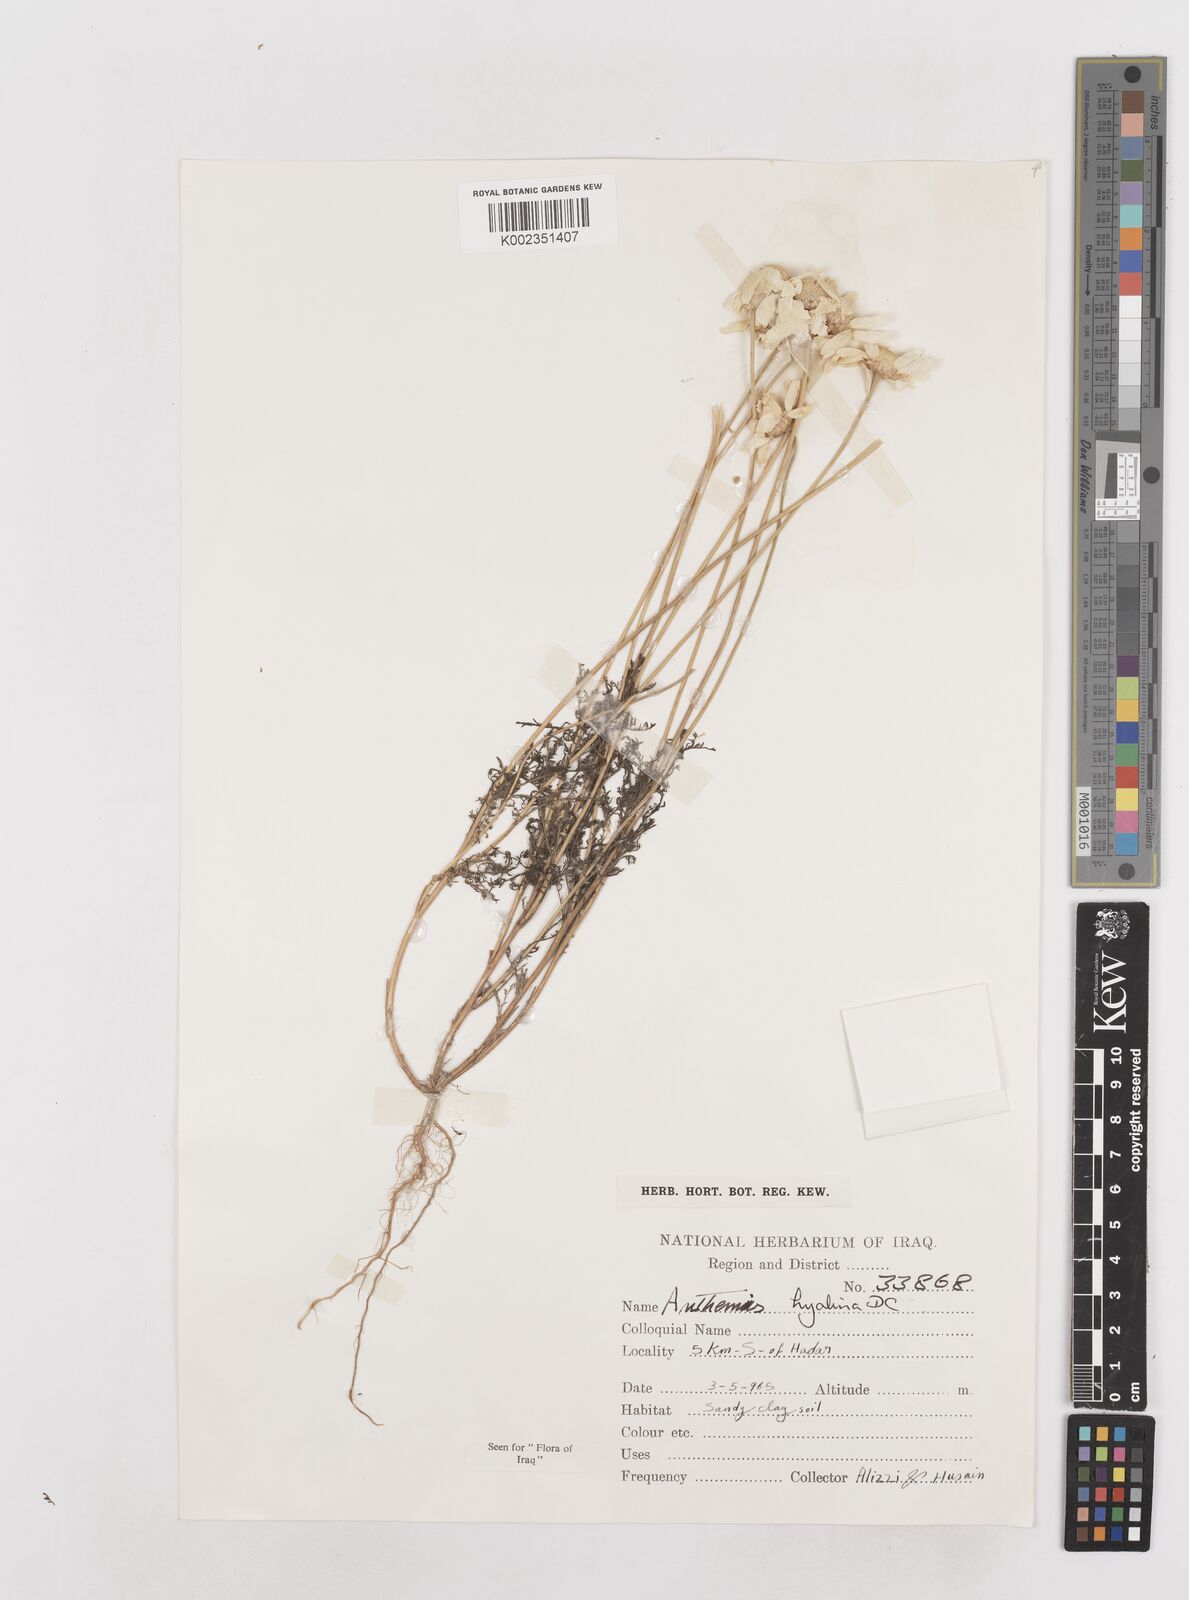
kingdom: Plantae
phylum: Tracheophyta
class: Magnoliopsida
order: Asterales
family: Asteraceae
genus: Anthemis
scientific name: Anthemis hyalina
